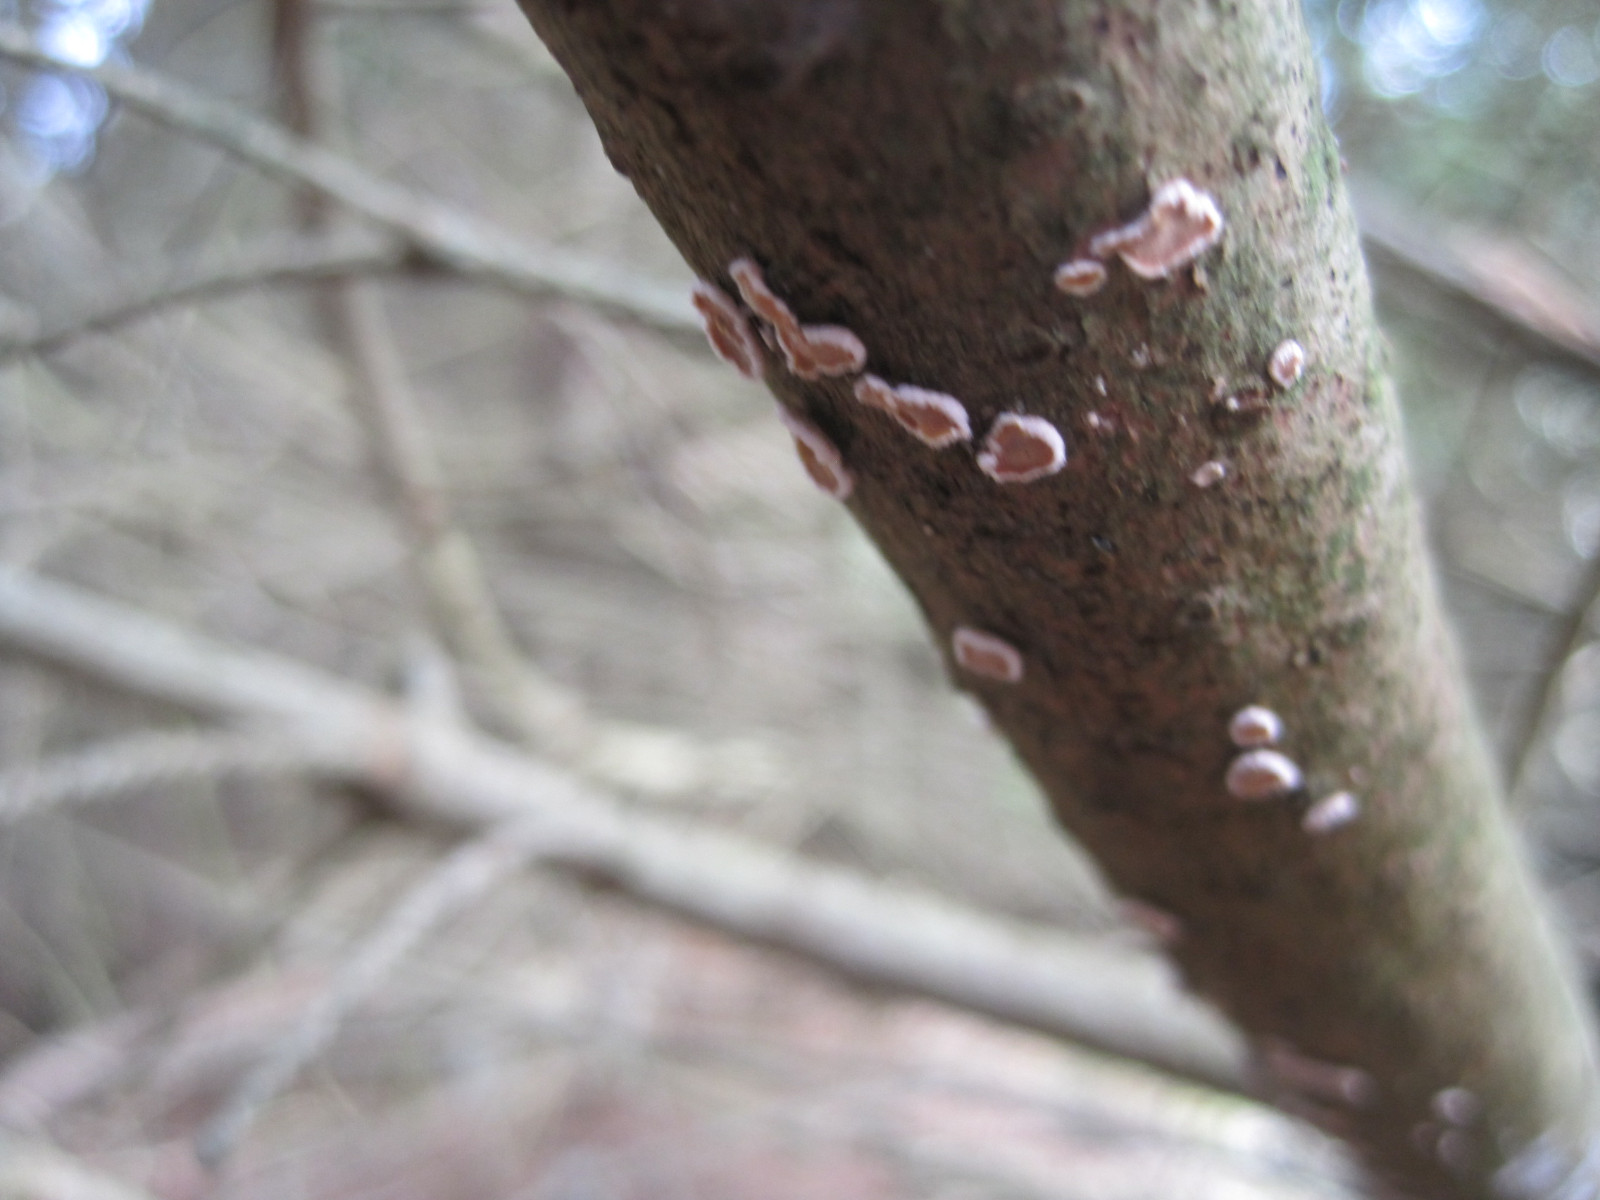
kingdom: Fungi
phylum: Basidiomycota
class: Agaricomycetes
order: Russulales
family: Stereaceae
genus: Aleurodiscus
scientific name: Aleurodiscus amorphus
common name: orange skiveskorpe
